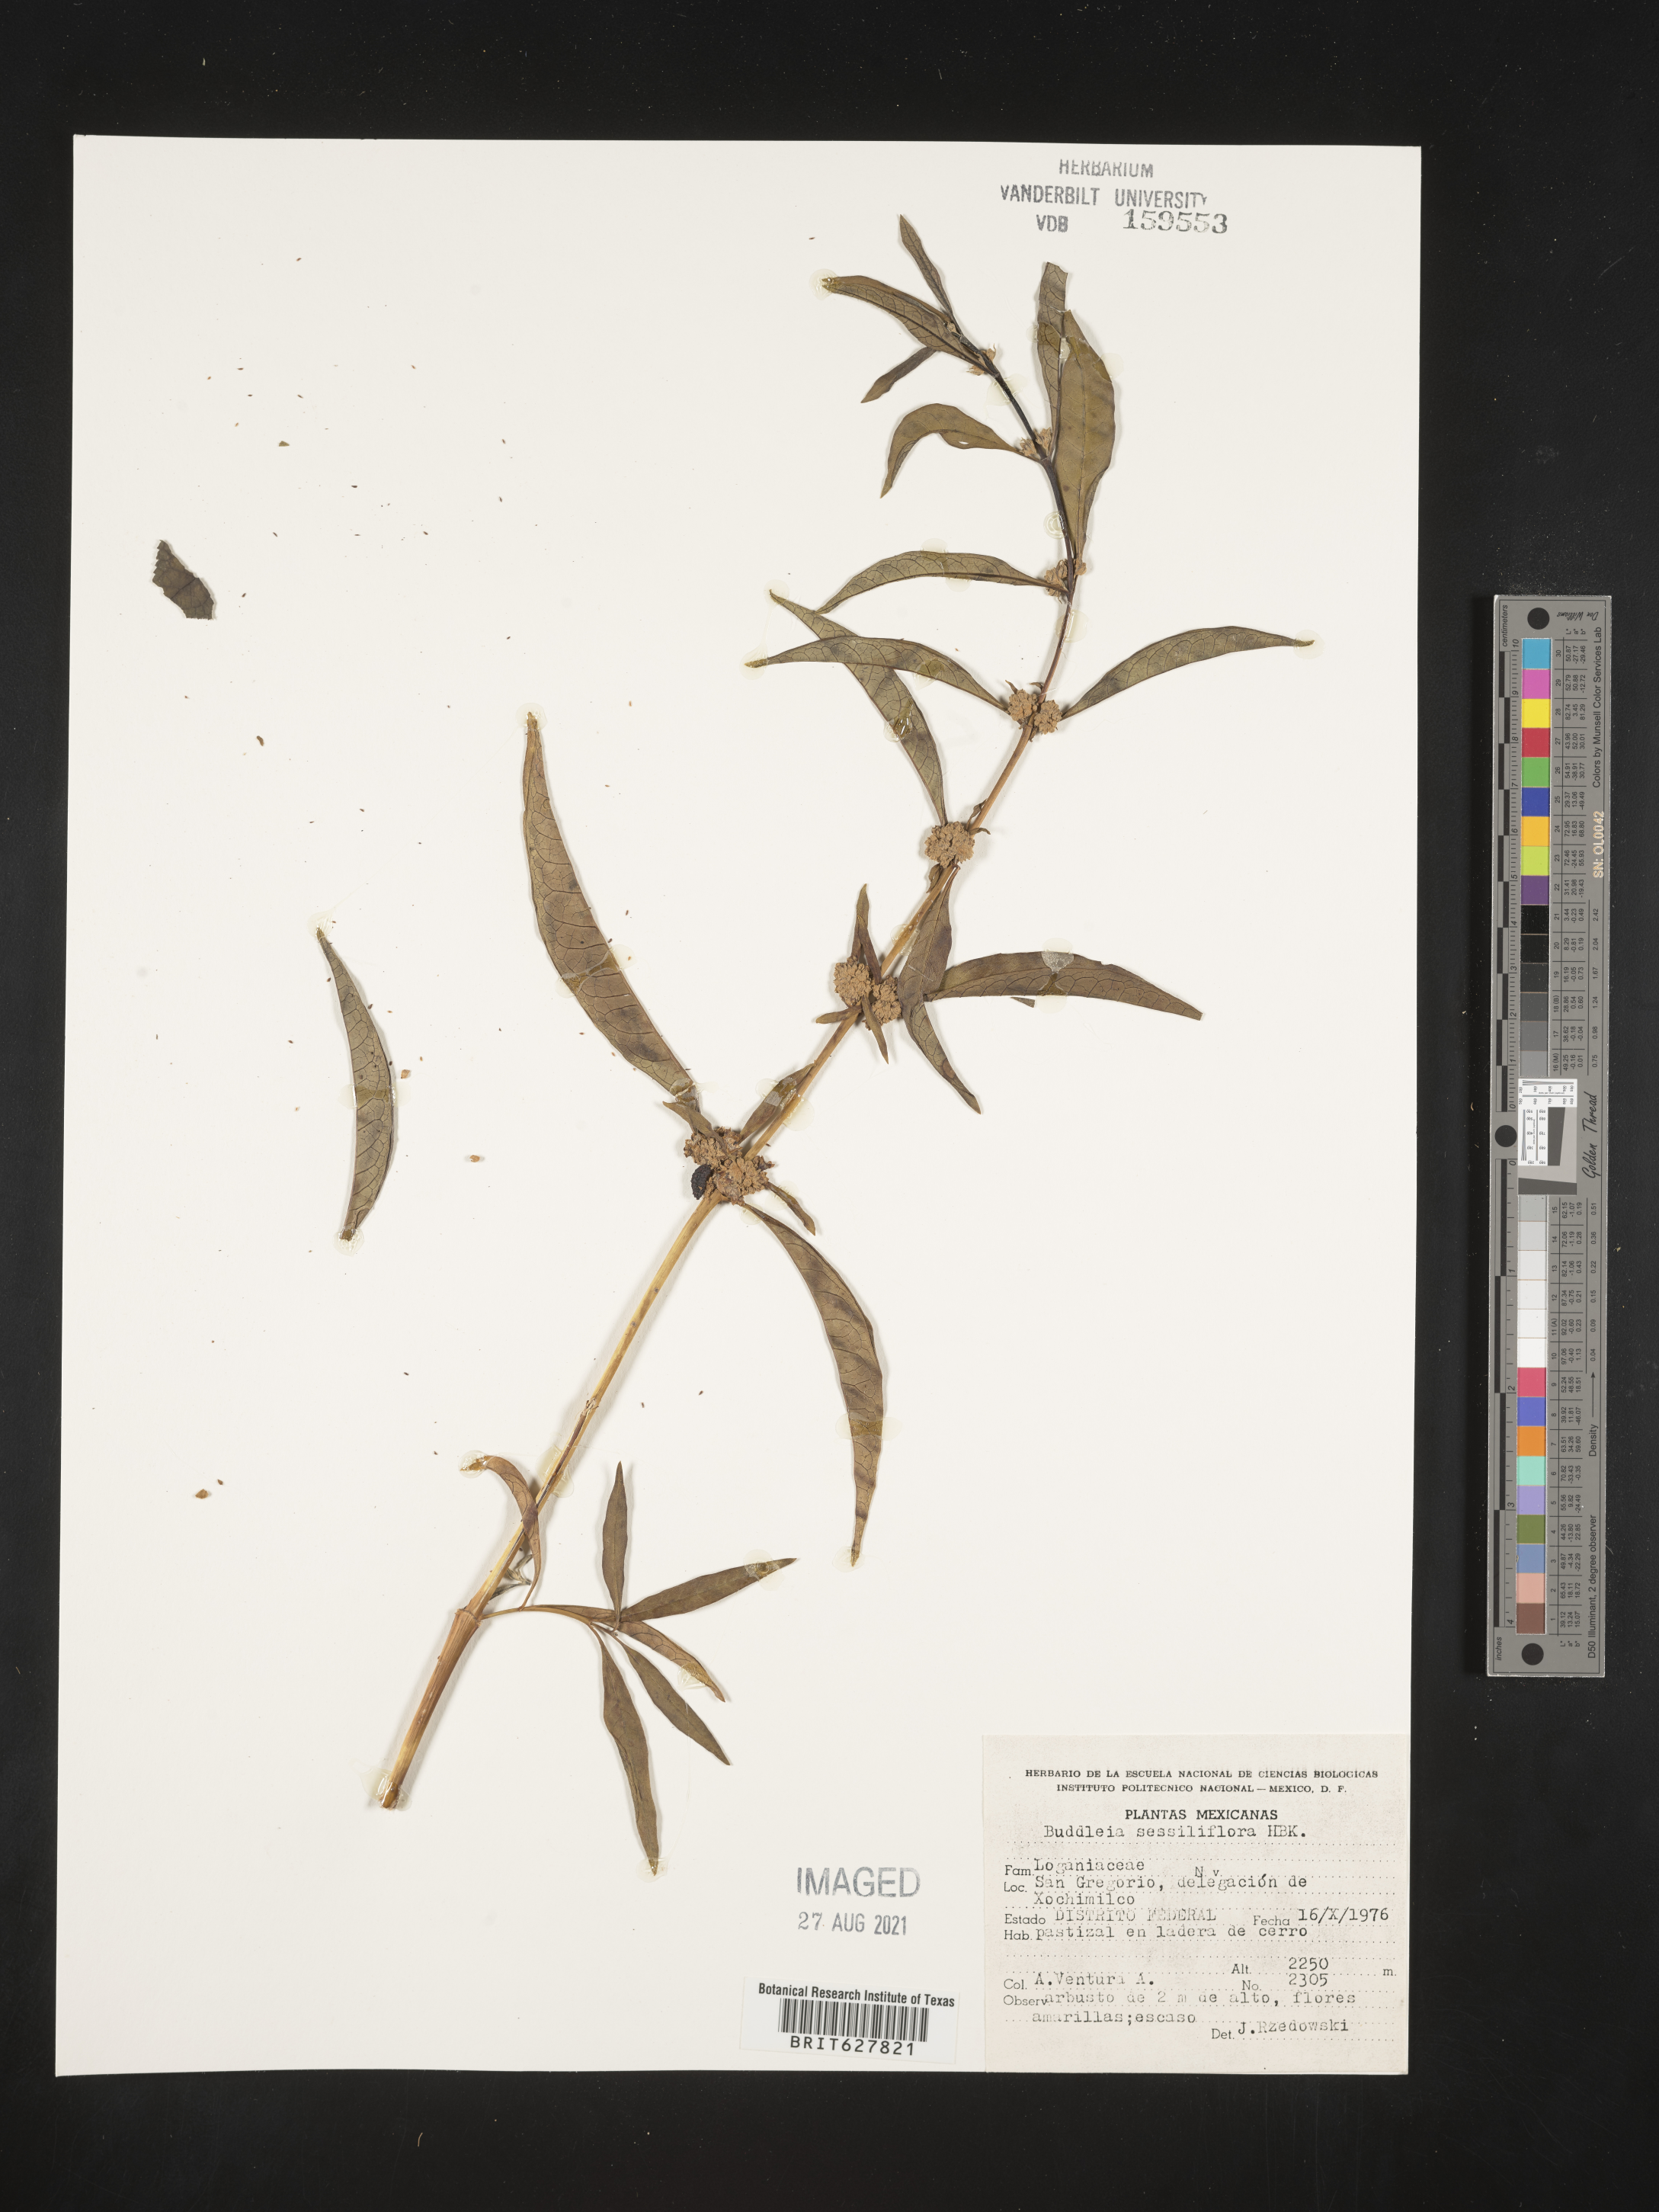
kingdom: Plantae
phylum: Tracheophyta
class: Magnoliopsida
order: Lamiales
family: Scrophulariaceae
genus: Buddleja
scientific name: Buddleja
